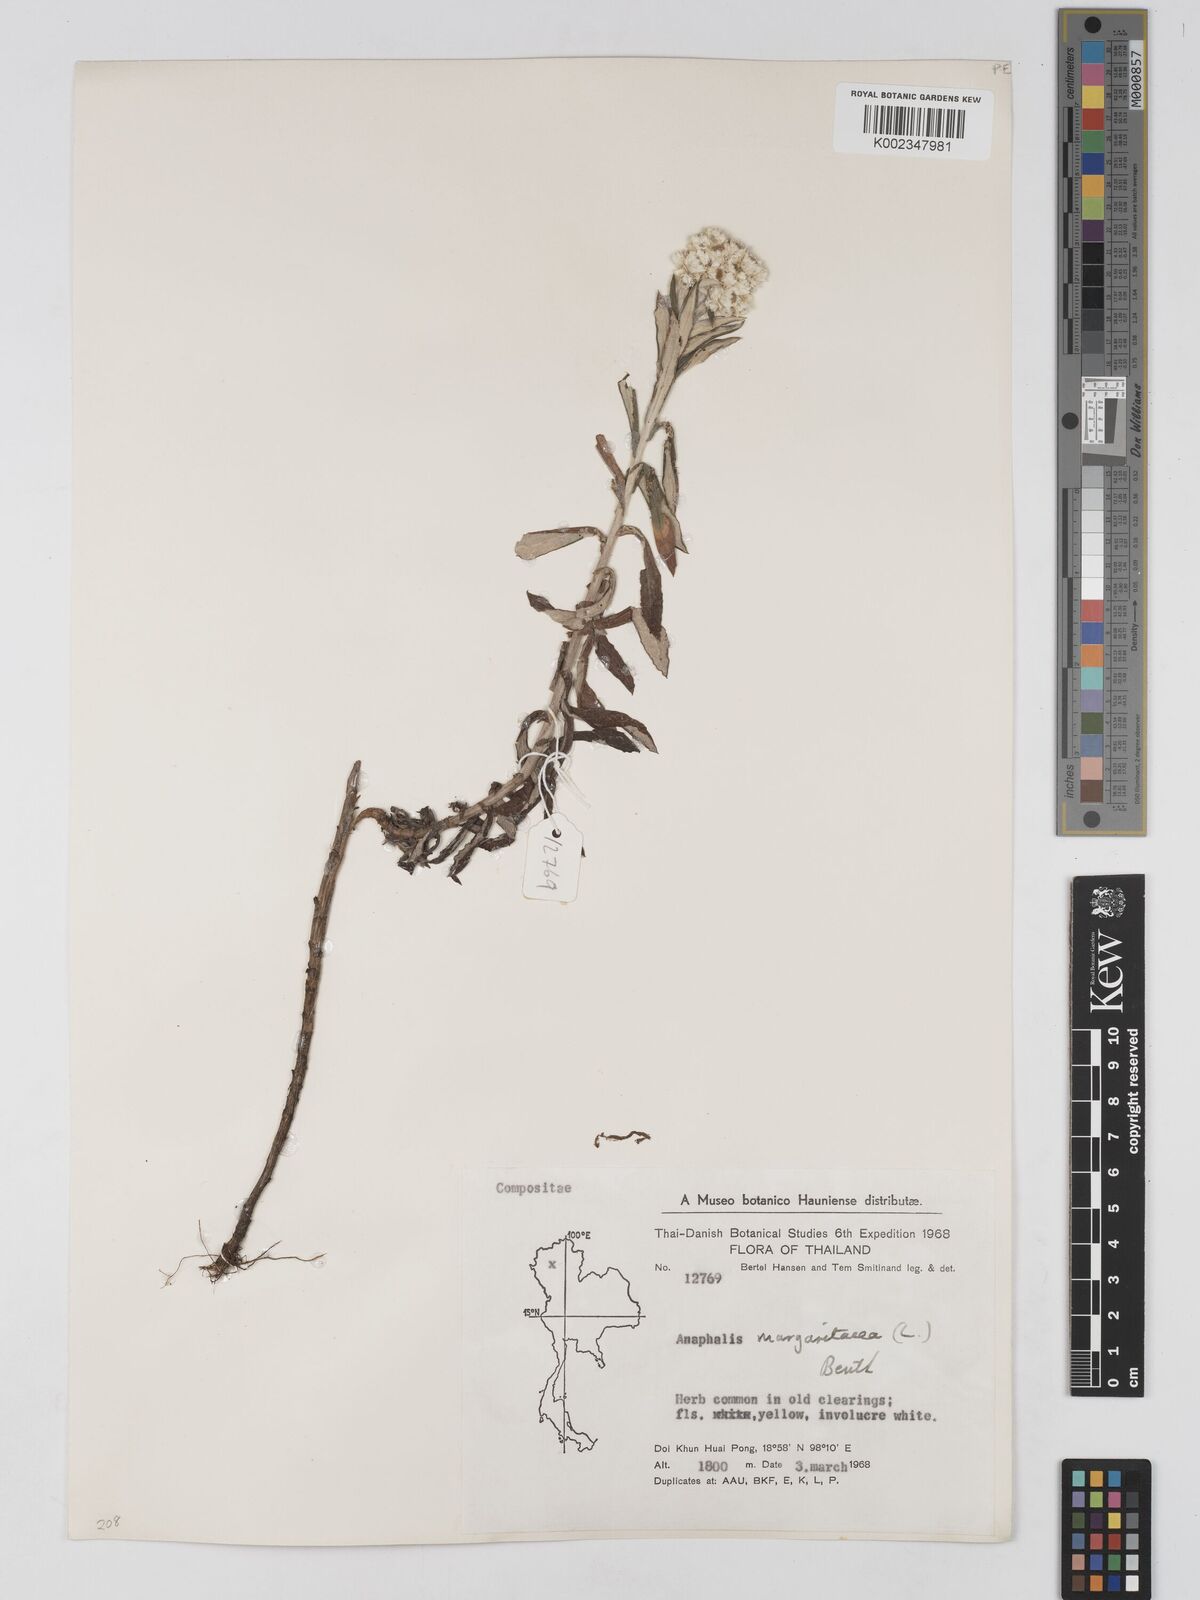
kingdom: Plantae
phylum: Tracheophyta
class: Magnoliopsida
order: Asterales
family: Asteraceae
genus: Anaphalis
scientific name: Anaphalis margaritacea
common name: Pearly everlasting
